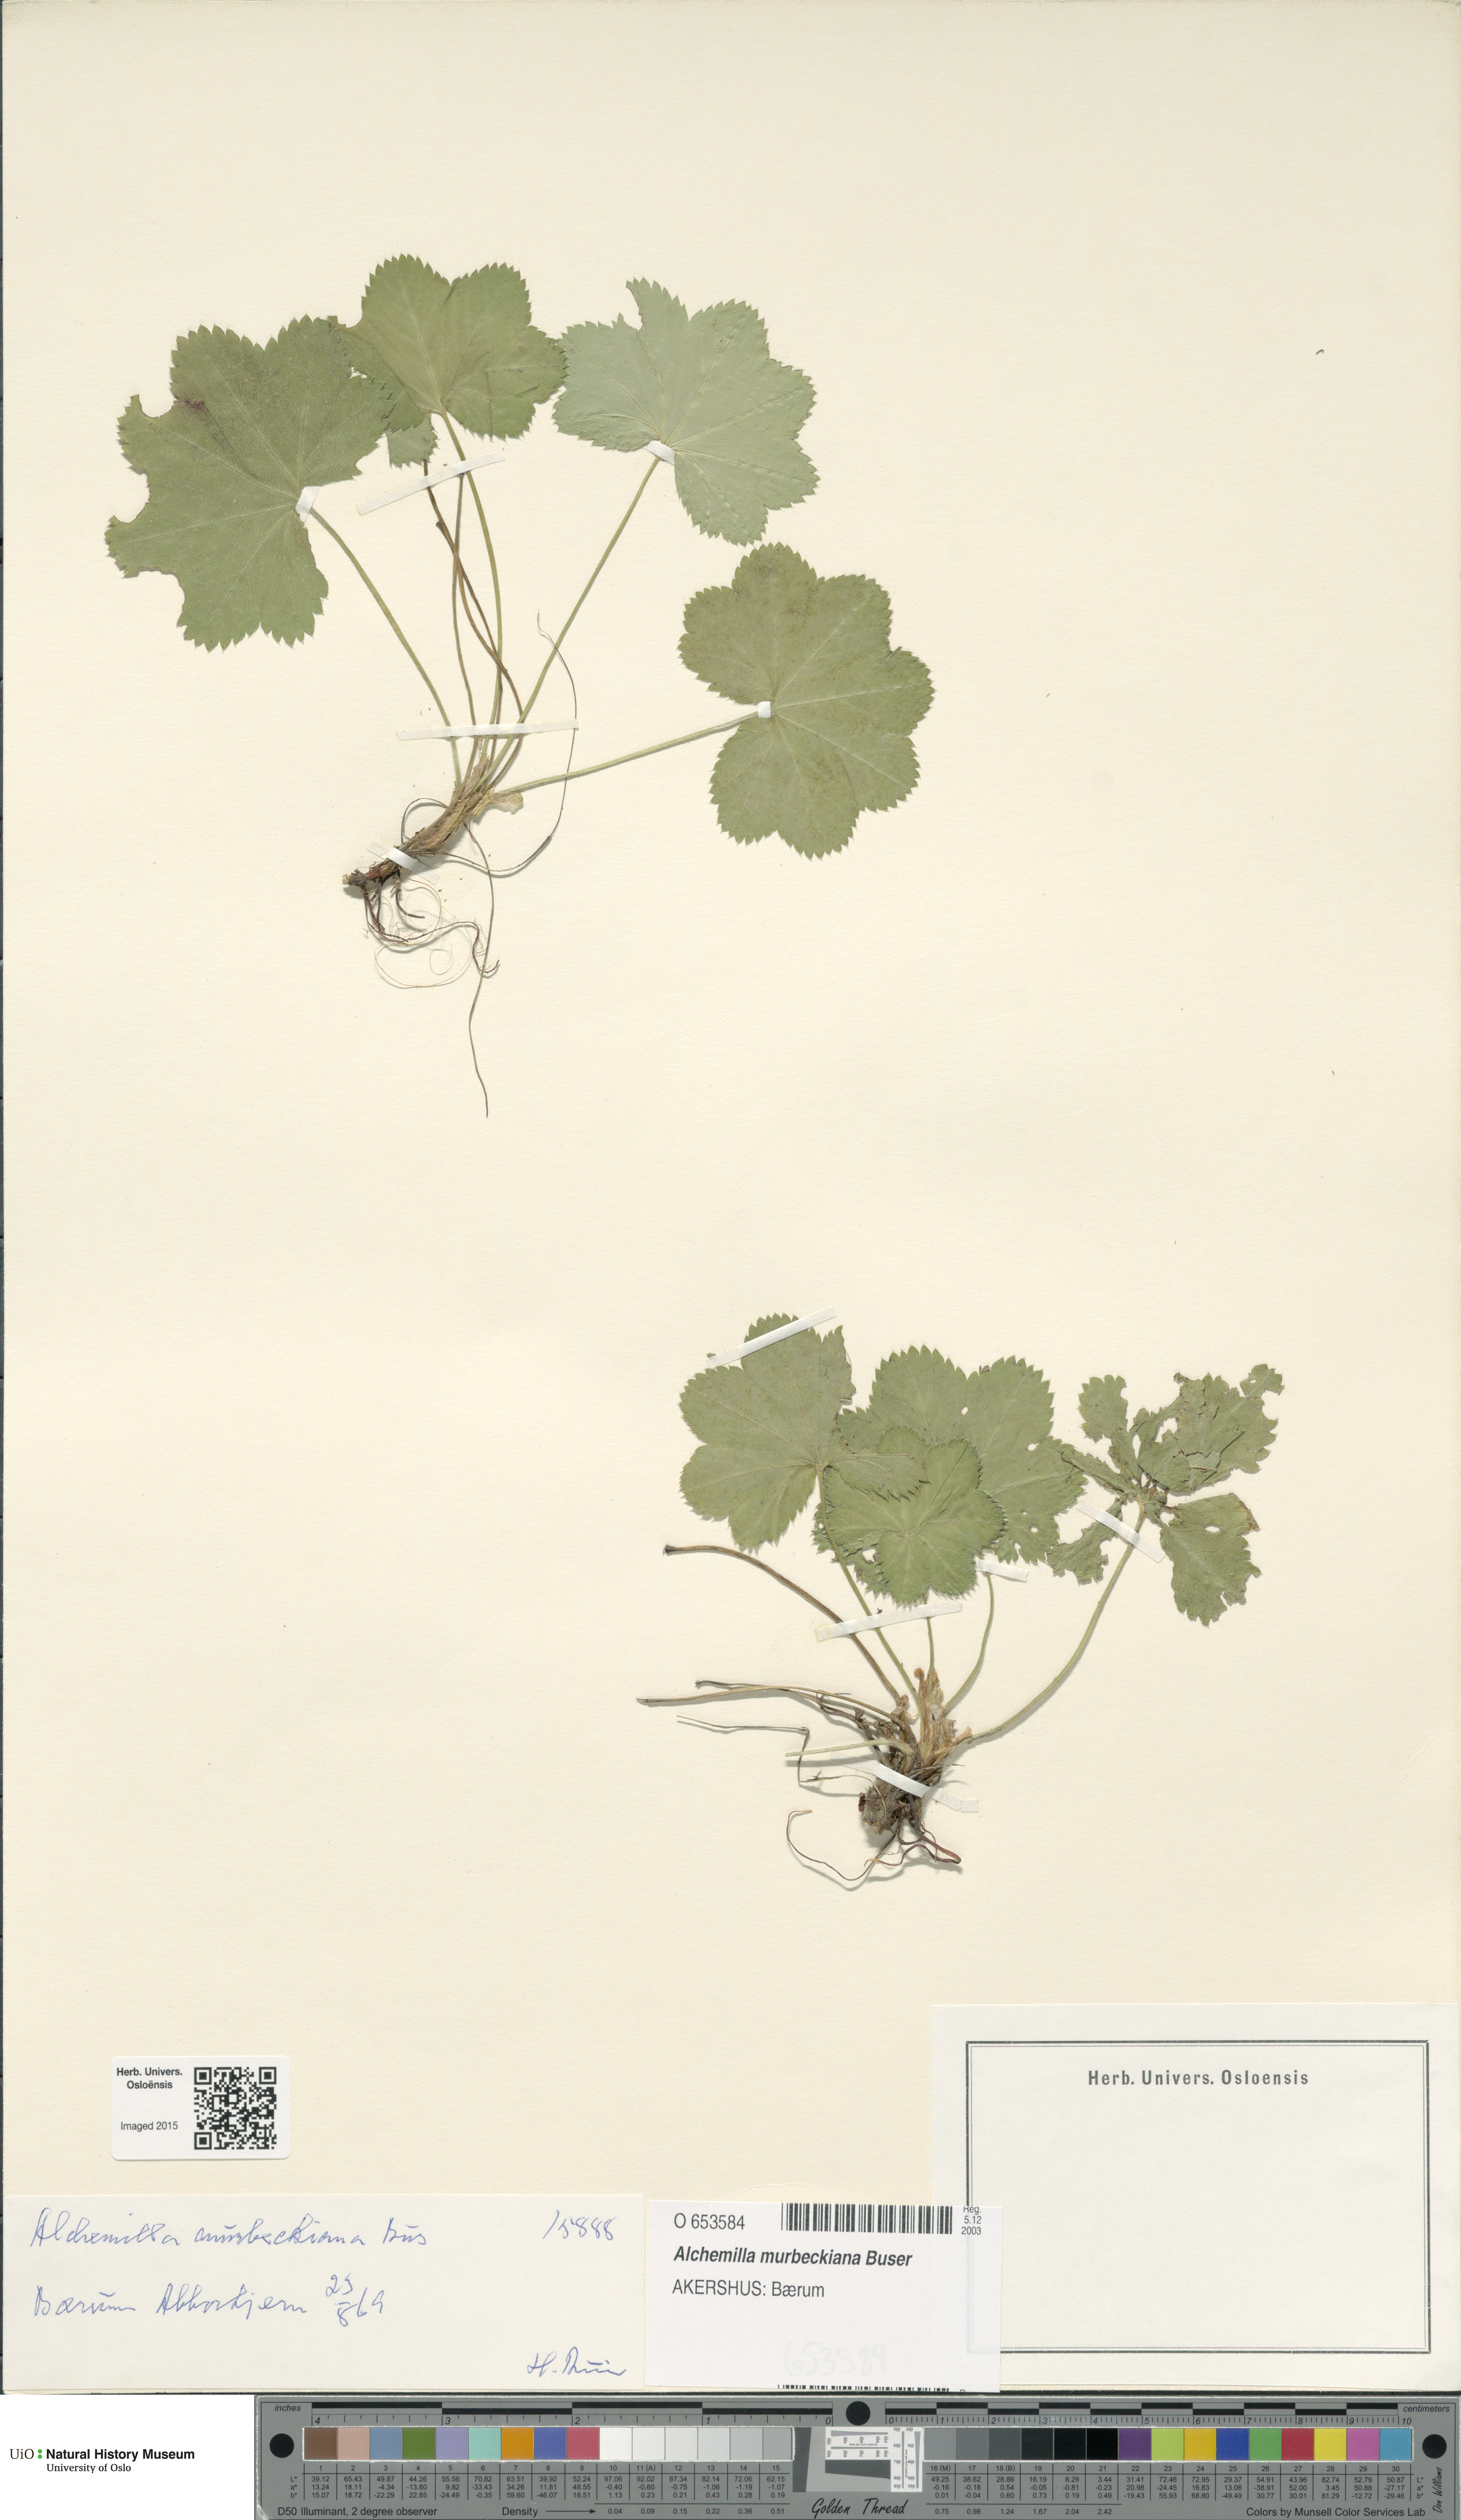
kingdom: Plantae
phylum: Tracheophyta
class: Magnoliopsida
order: Rosales
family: Rosaceae
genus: Alchemilla
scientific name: Alchemilla murbeckiana
